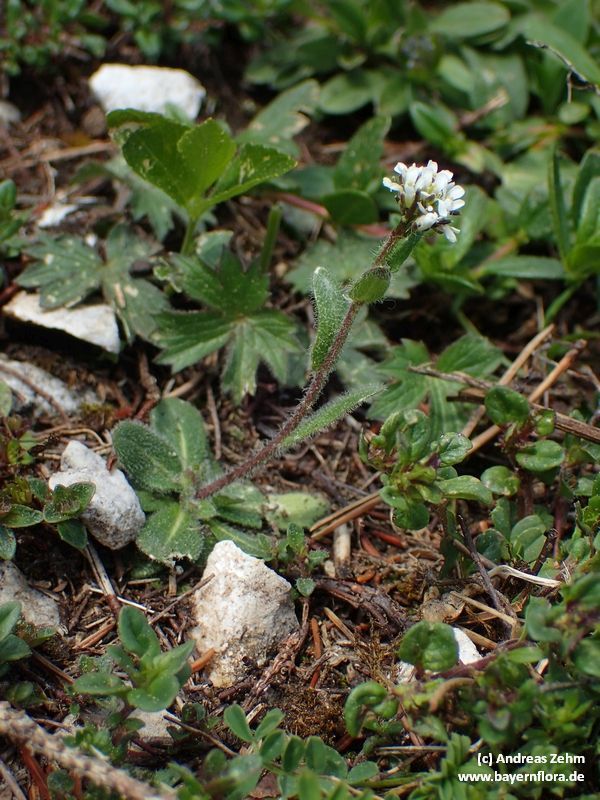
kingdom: Plantae
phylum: Tracheophyta
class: Magnoliopsida
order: Brassicales
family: Brassicaceae
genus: Arabis
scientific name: Arabis ciliata
